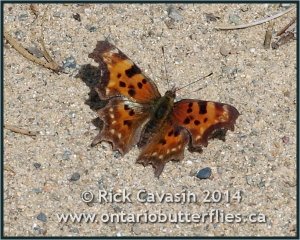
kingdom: Animalia
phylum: Arthropoda
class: Insecta
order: Lepidoptera
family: Nymphalidae
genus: Polygonia
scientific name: Polygonia faunus
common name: Green Comma
